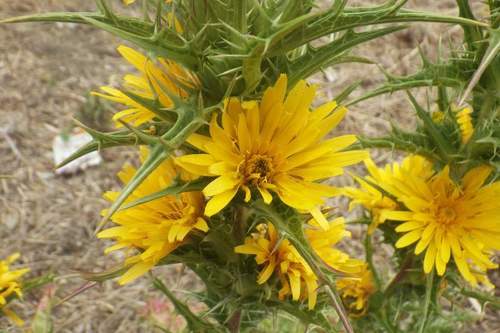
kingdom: Plantae
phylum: Tracheophyta
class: Magnoliopsida
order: Asterales
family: Asteraceae
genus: Scolymus
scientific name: Scolymus hispanicus
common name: Golden thistle
